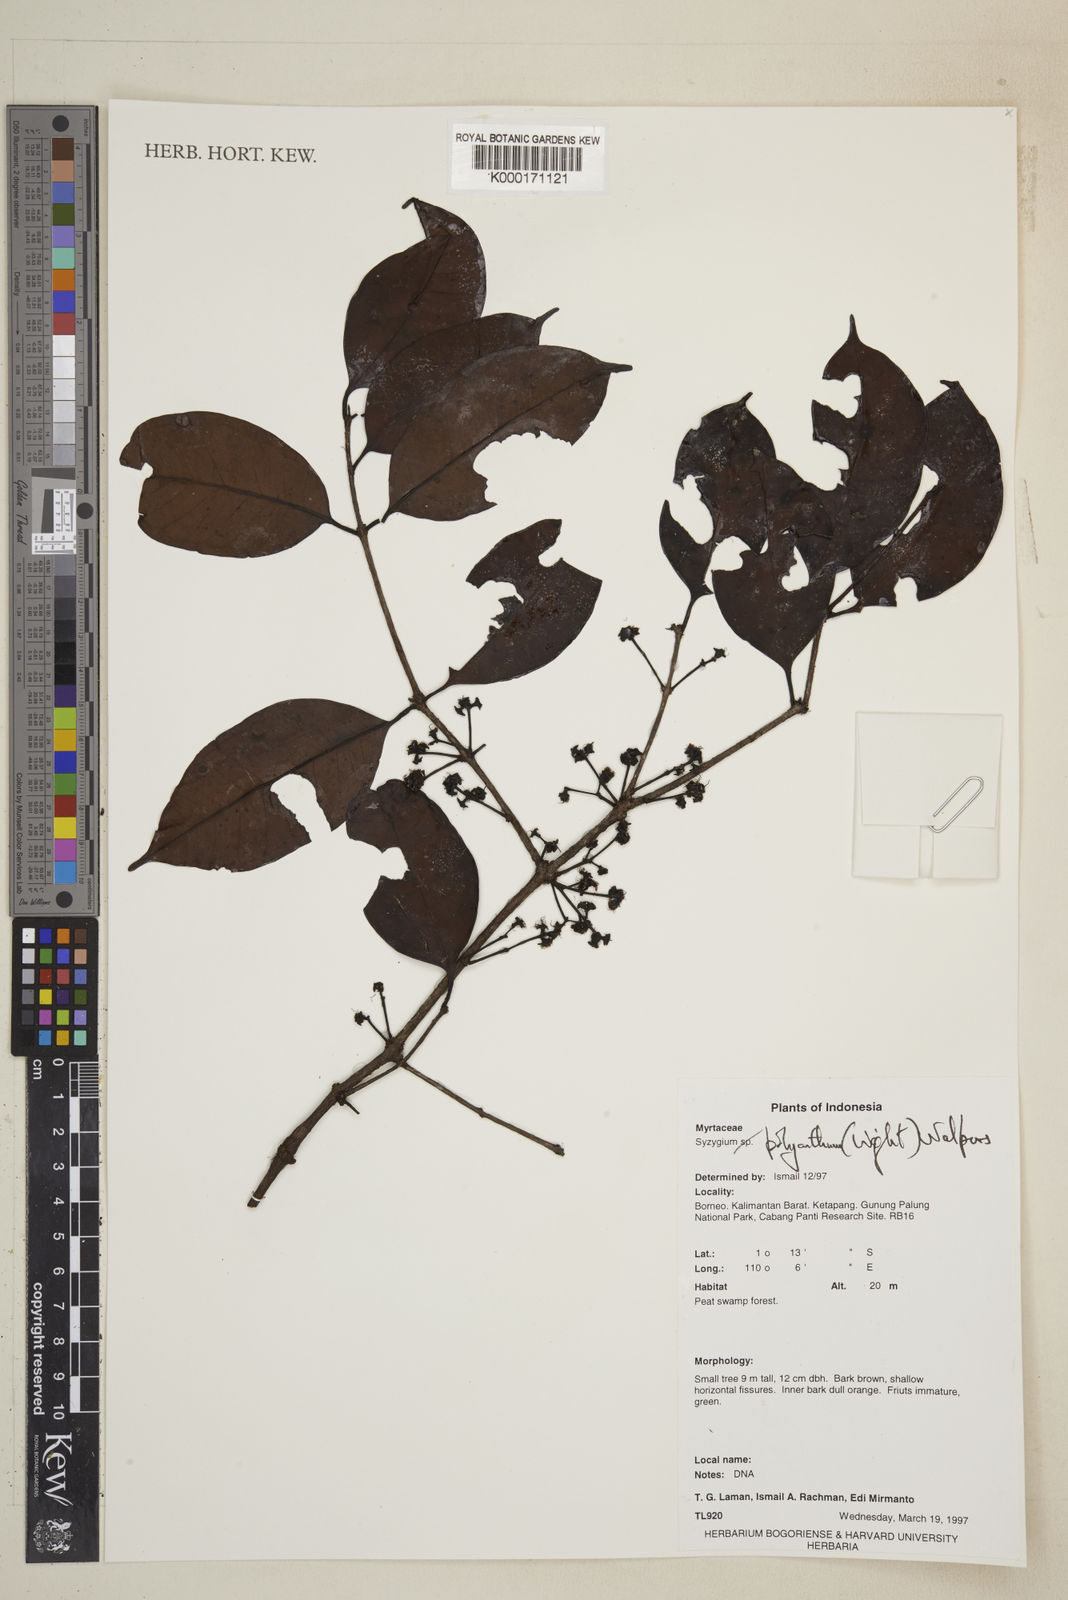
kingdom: Plantae
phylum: Tracheophyta
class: Magnoliopsida
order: Myrtales
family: Myrtaceae
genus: Syzygium
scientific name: Syzygium polyanthum
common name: Indonesian bayleaf
